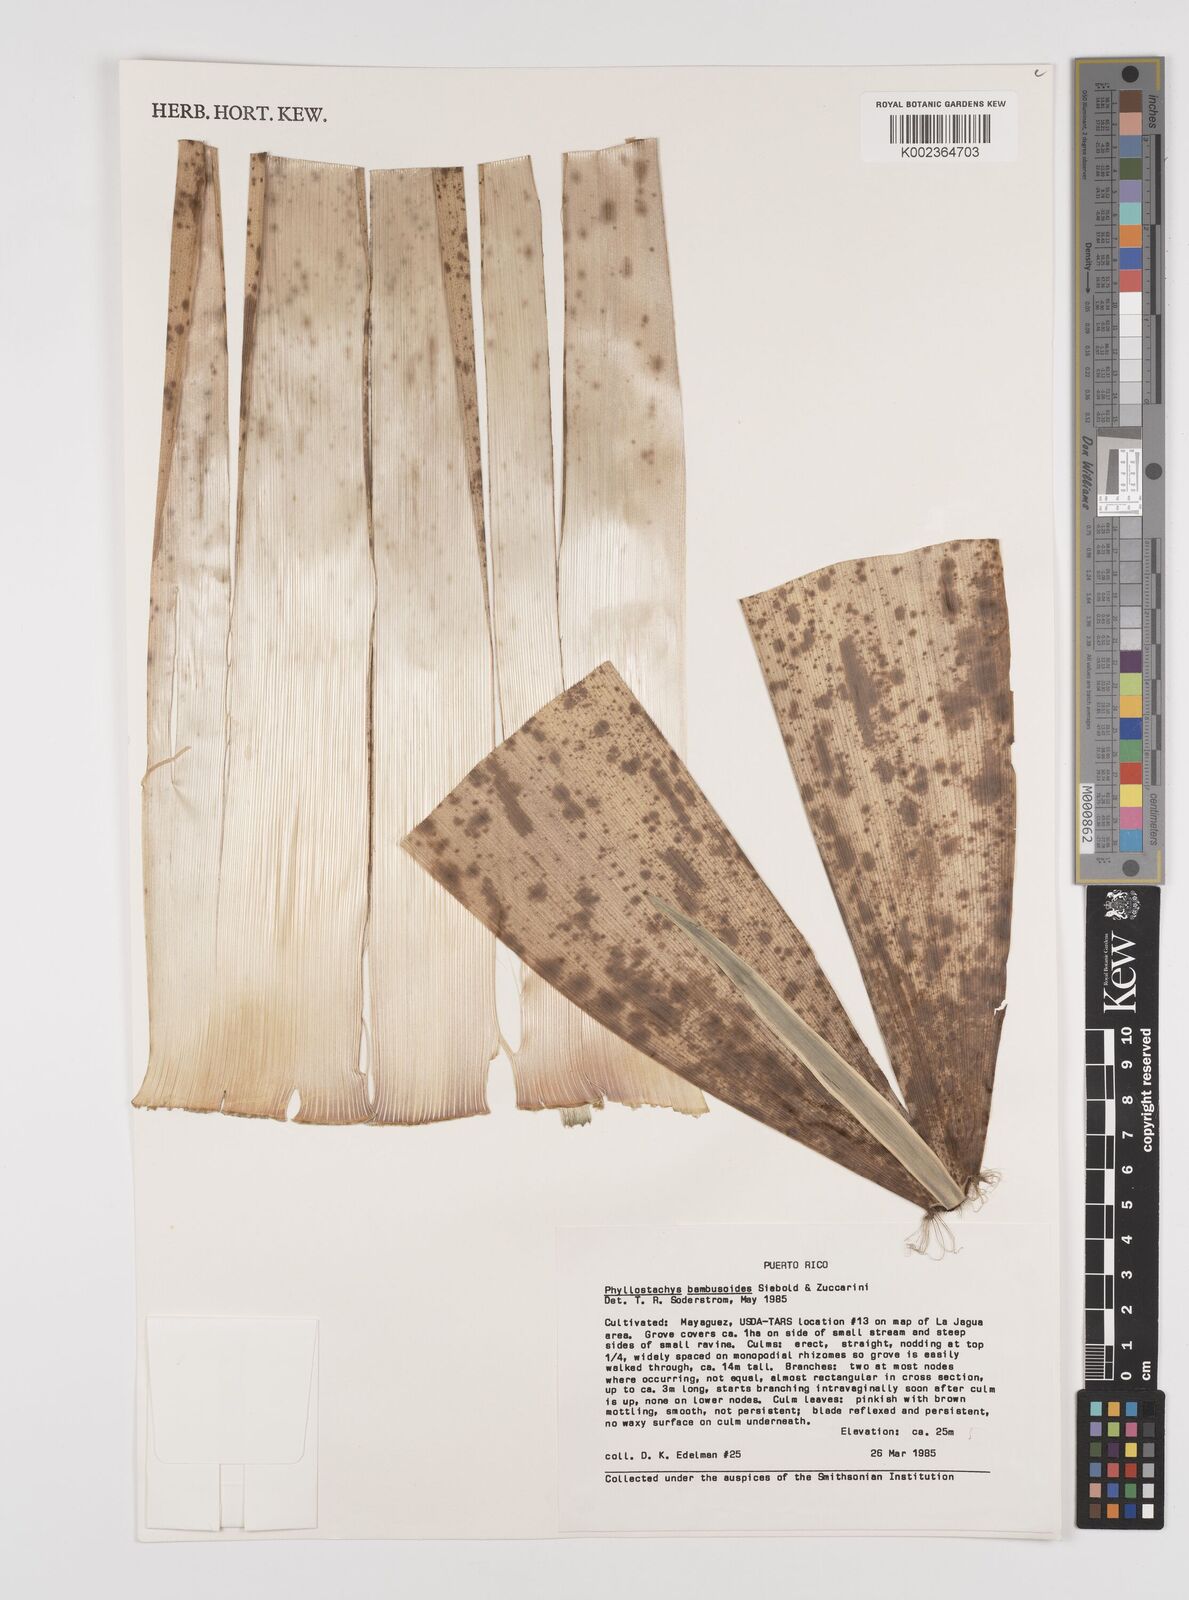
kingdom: Plantae
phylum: Tracheophyta
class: Liliopsida
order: Poales
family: Poaceae
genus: Phyllostachys
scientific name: Phyllostachys reticulata
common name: Bamboo
